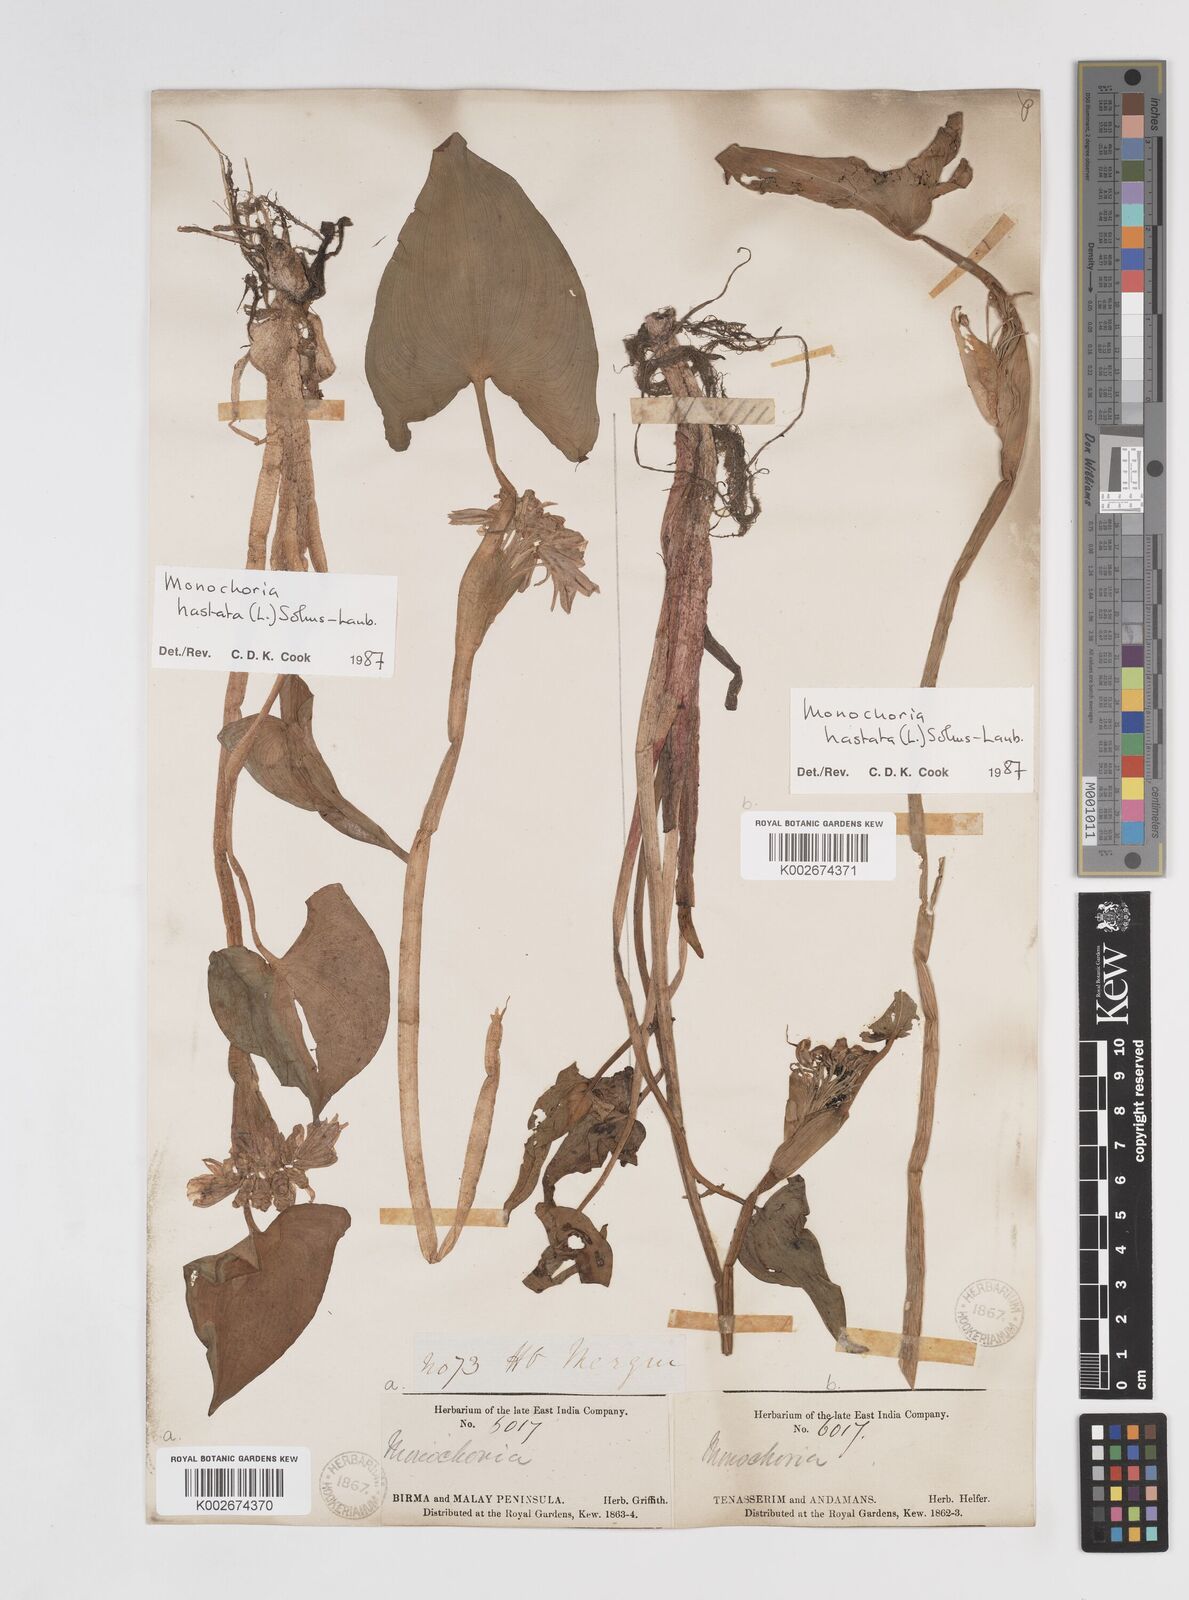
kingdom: Plantae
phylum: Tracheophyta
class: Liliopsida
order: Commelinales
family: Pontederiaceae
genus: Pontederia
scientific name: Pontederia hastata
